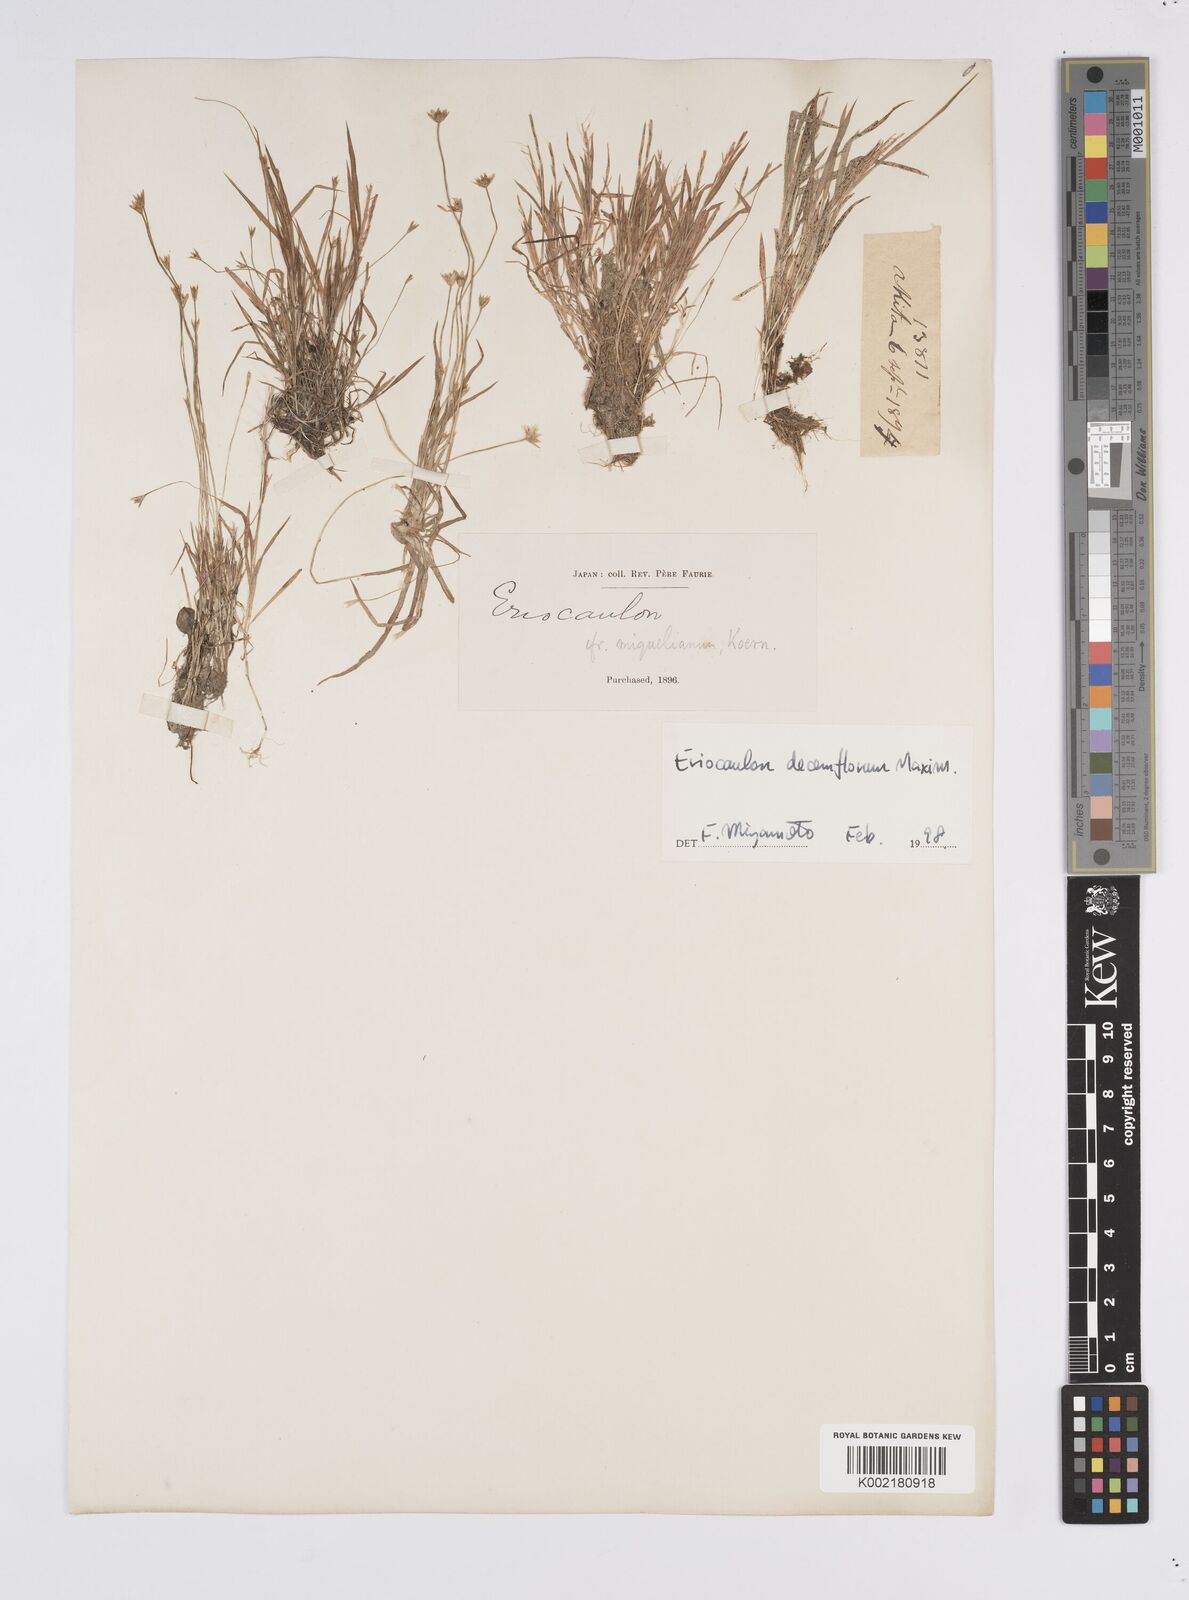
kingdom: Plantae
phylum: Tracheophyta
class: Liliopsida
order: Poales
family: Eriocaulaceae
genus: Eriocaulon
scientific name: Eriocaulon decemflorum
